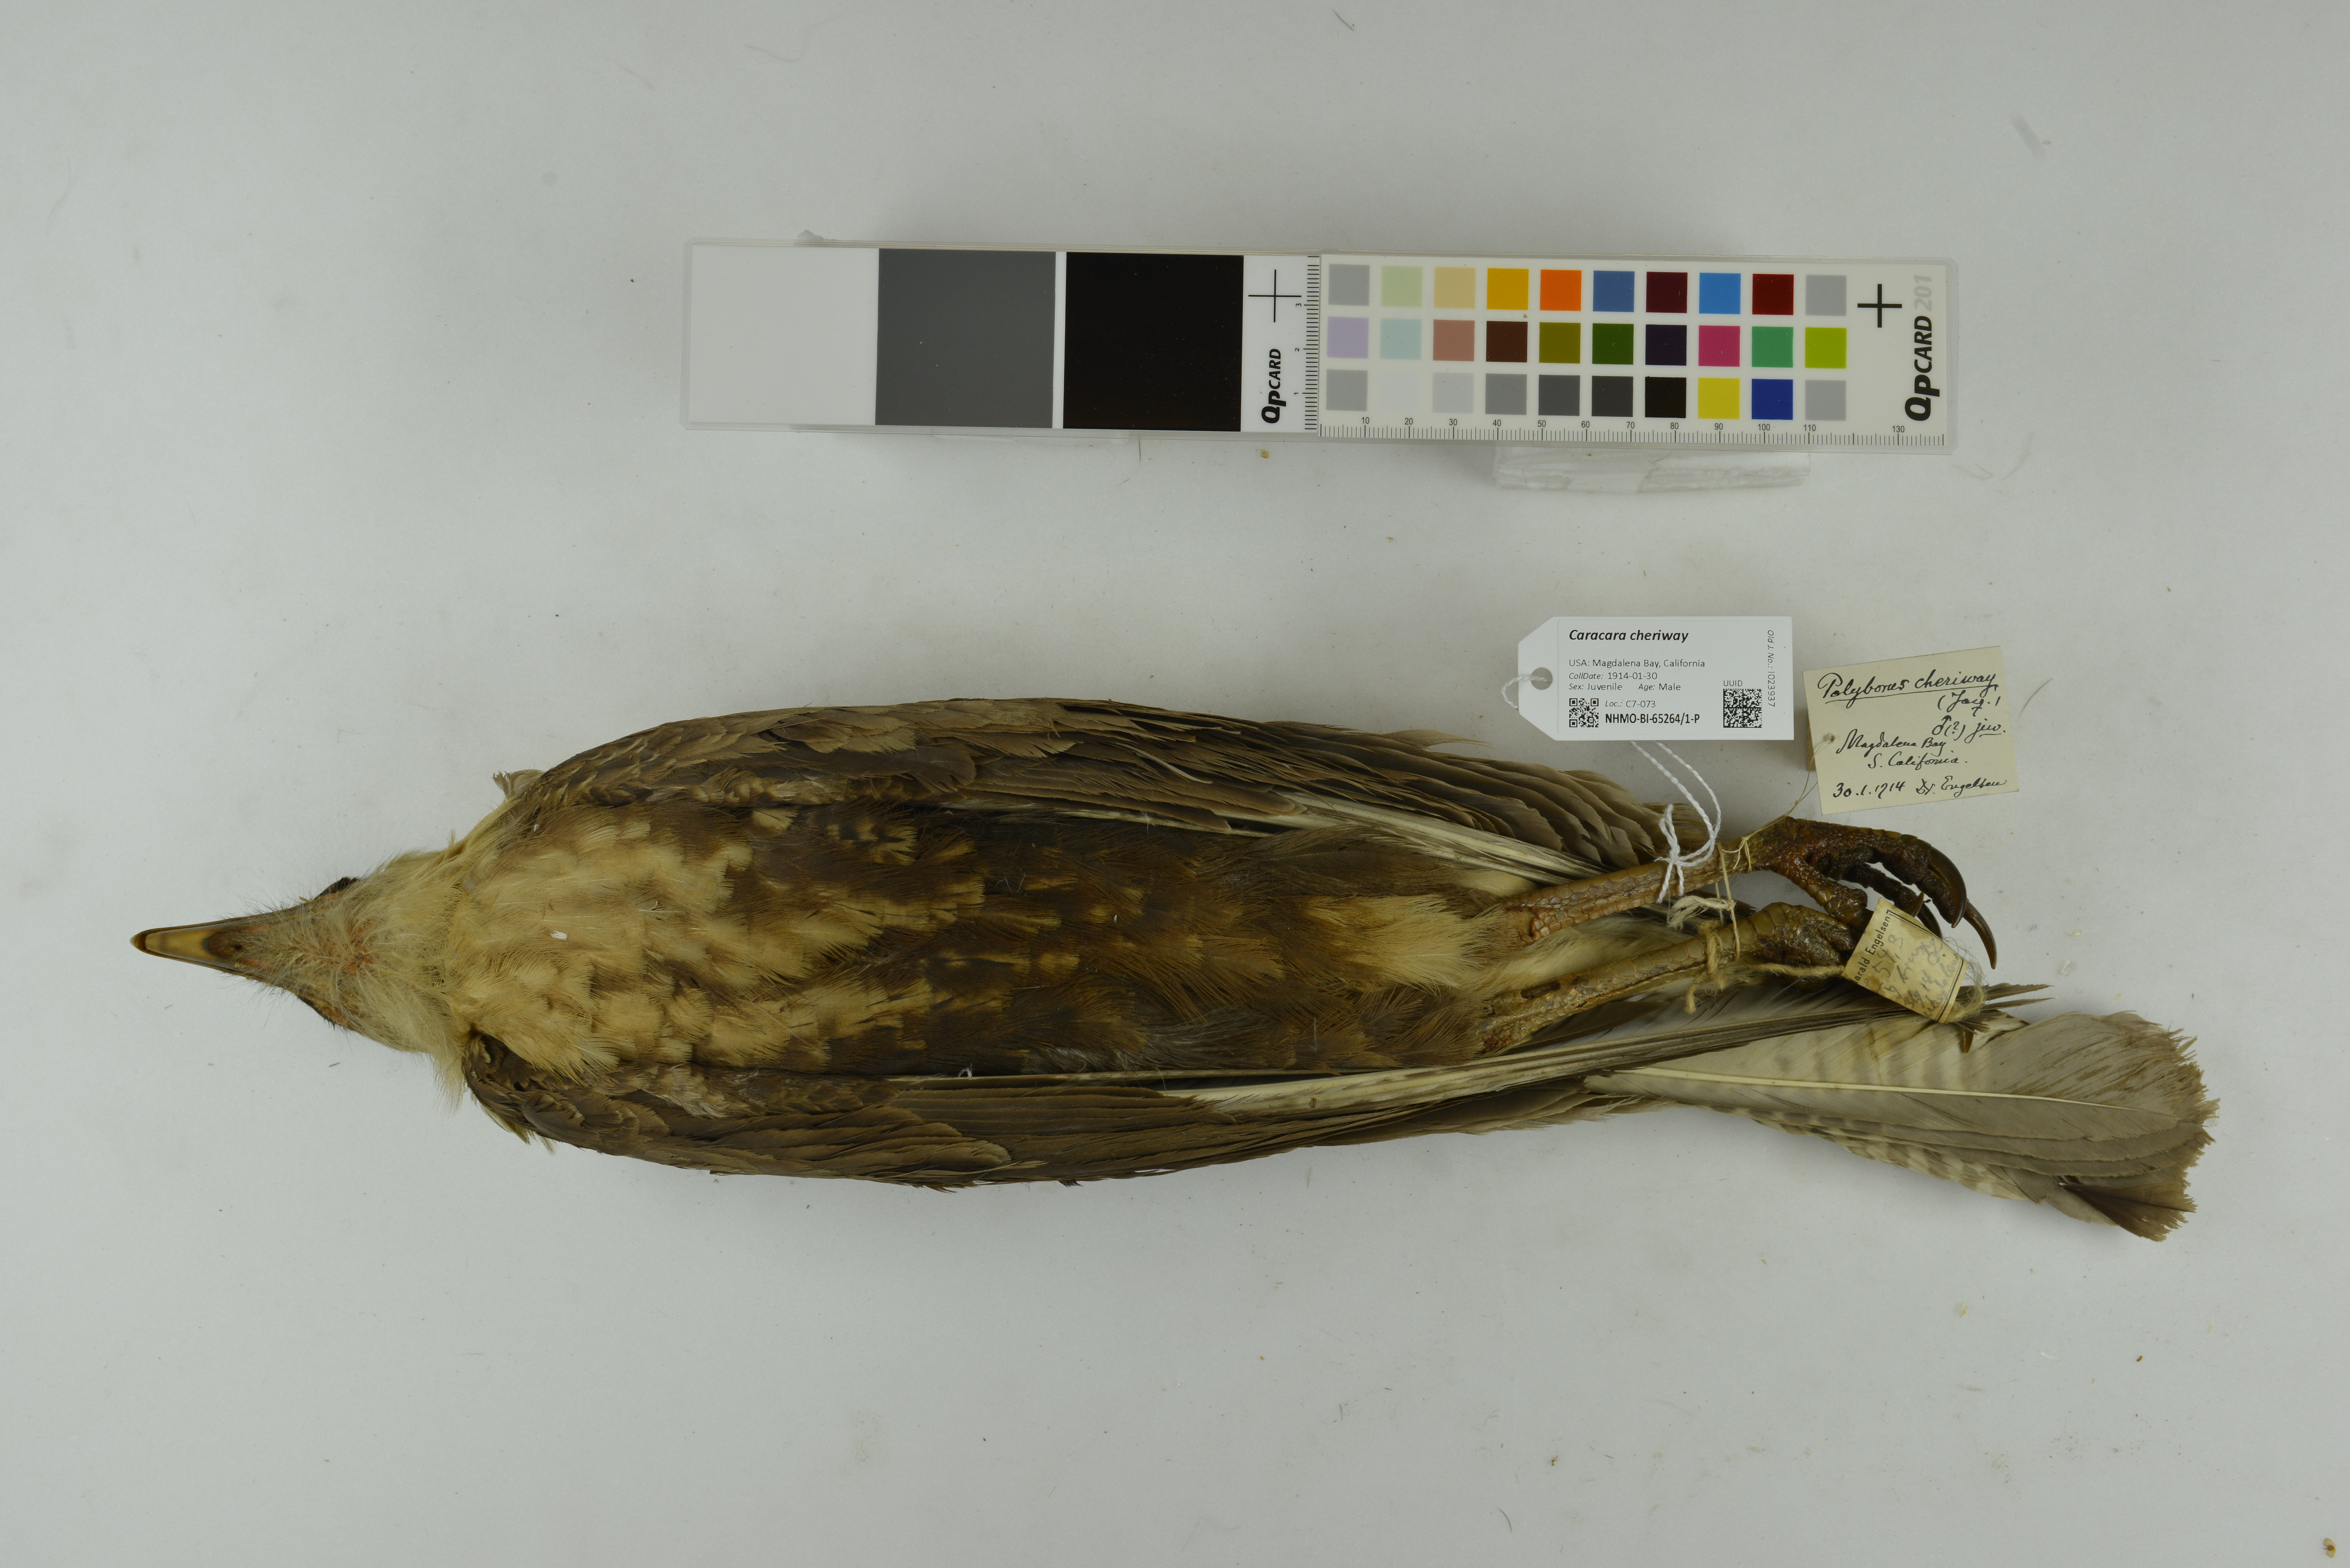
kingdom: Animalia
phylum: Chordata
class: Aves
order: Falconiformes
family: Falconidae
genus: Caracara
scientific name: Caracara plancus
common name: Southern caracara
